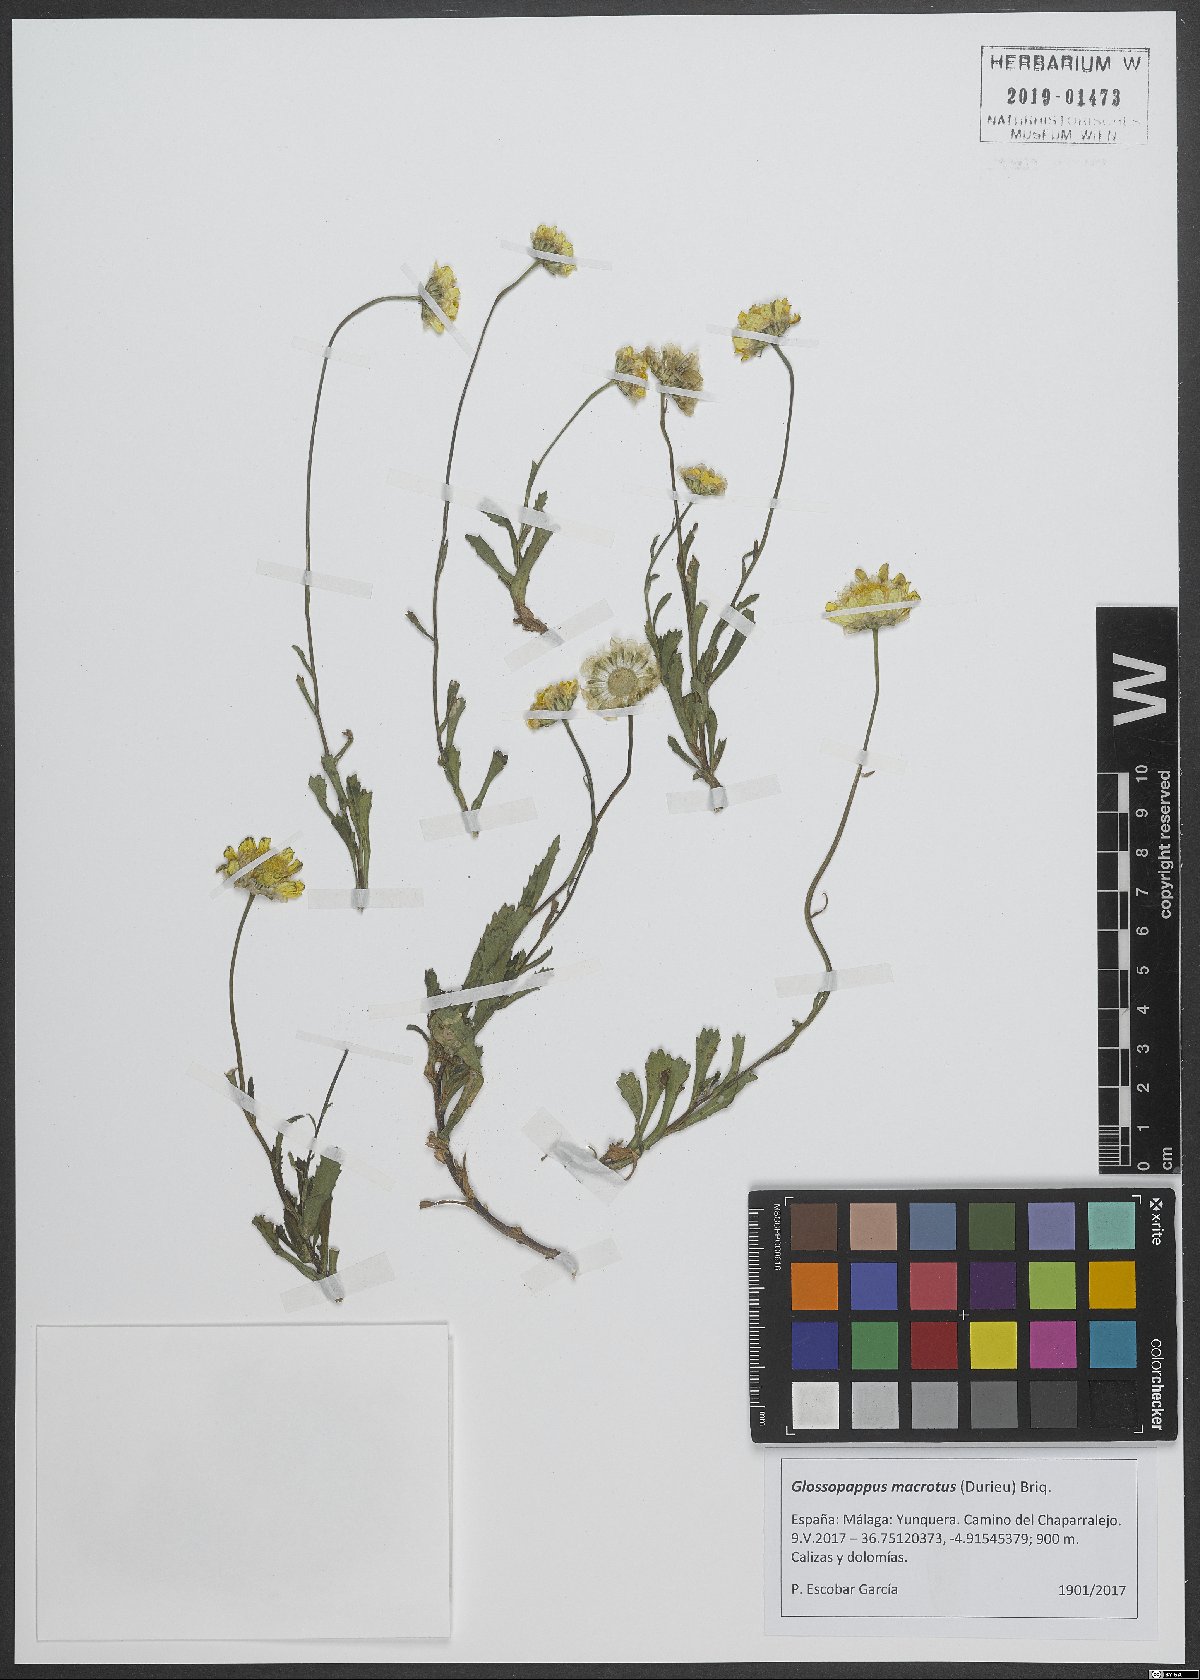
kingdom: Plantae
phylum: Tracheophyta
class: Magnoliopsida
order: Asterales
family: Asteraceae
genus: Glossopappus
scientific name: Glossopappus macrotus
